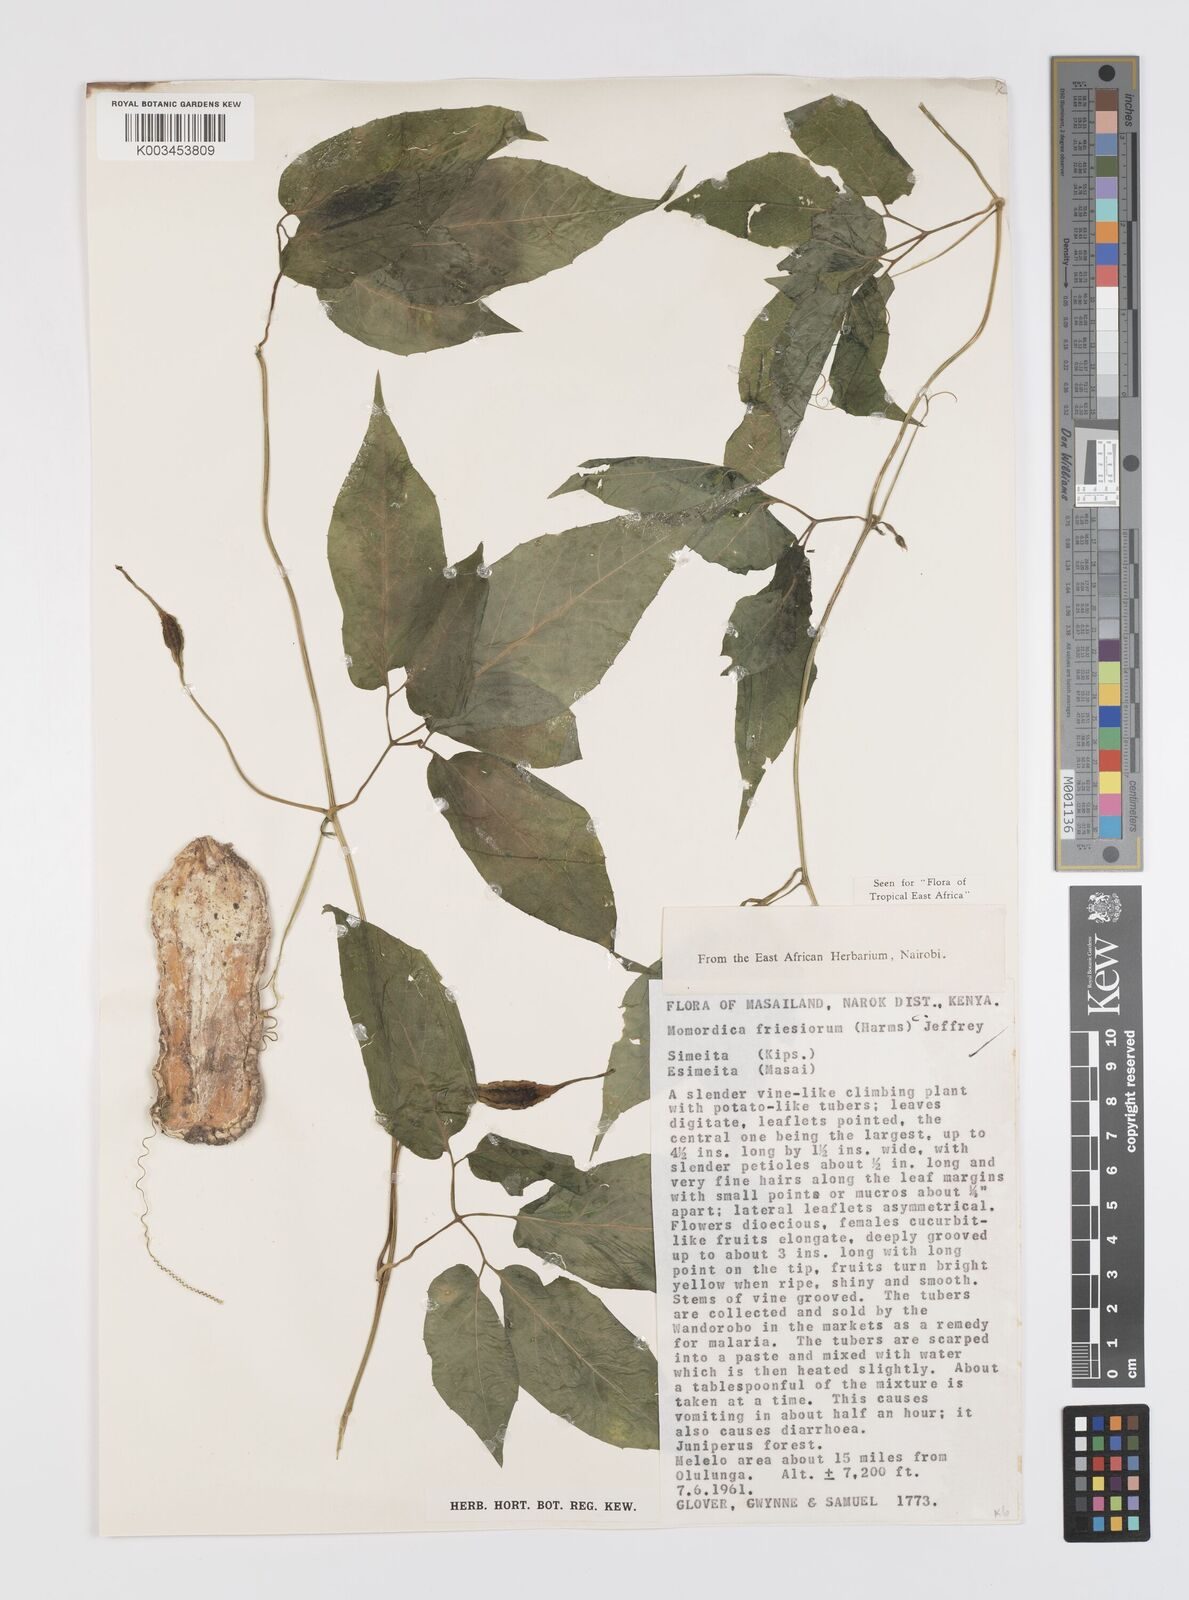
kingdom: Plantae
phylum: Tracheophyta
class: Magnoliopsida
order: Cucurbitales
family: Cucurbitaceae
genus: Momordica
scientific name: Momordica friesiorum
